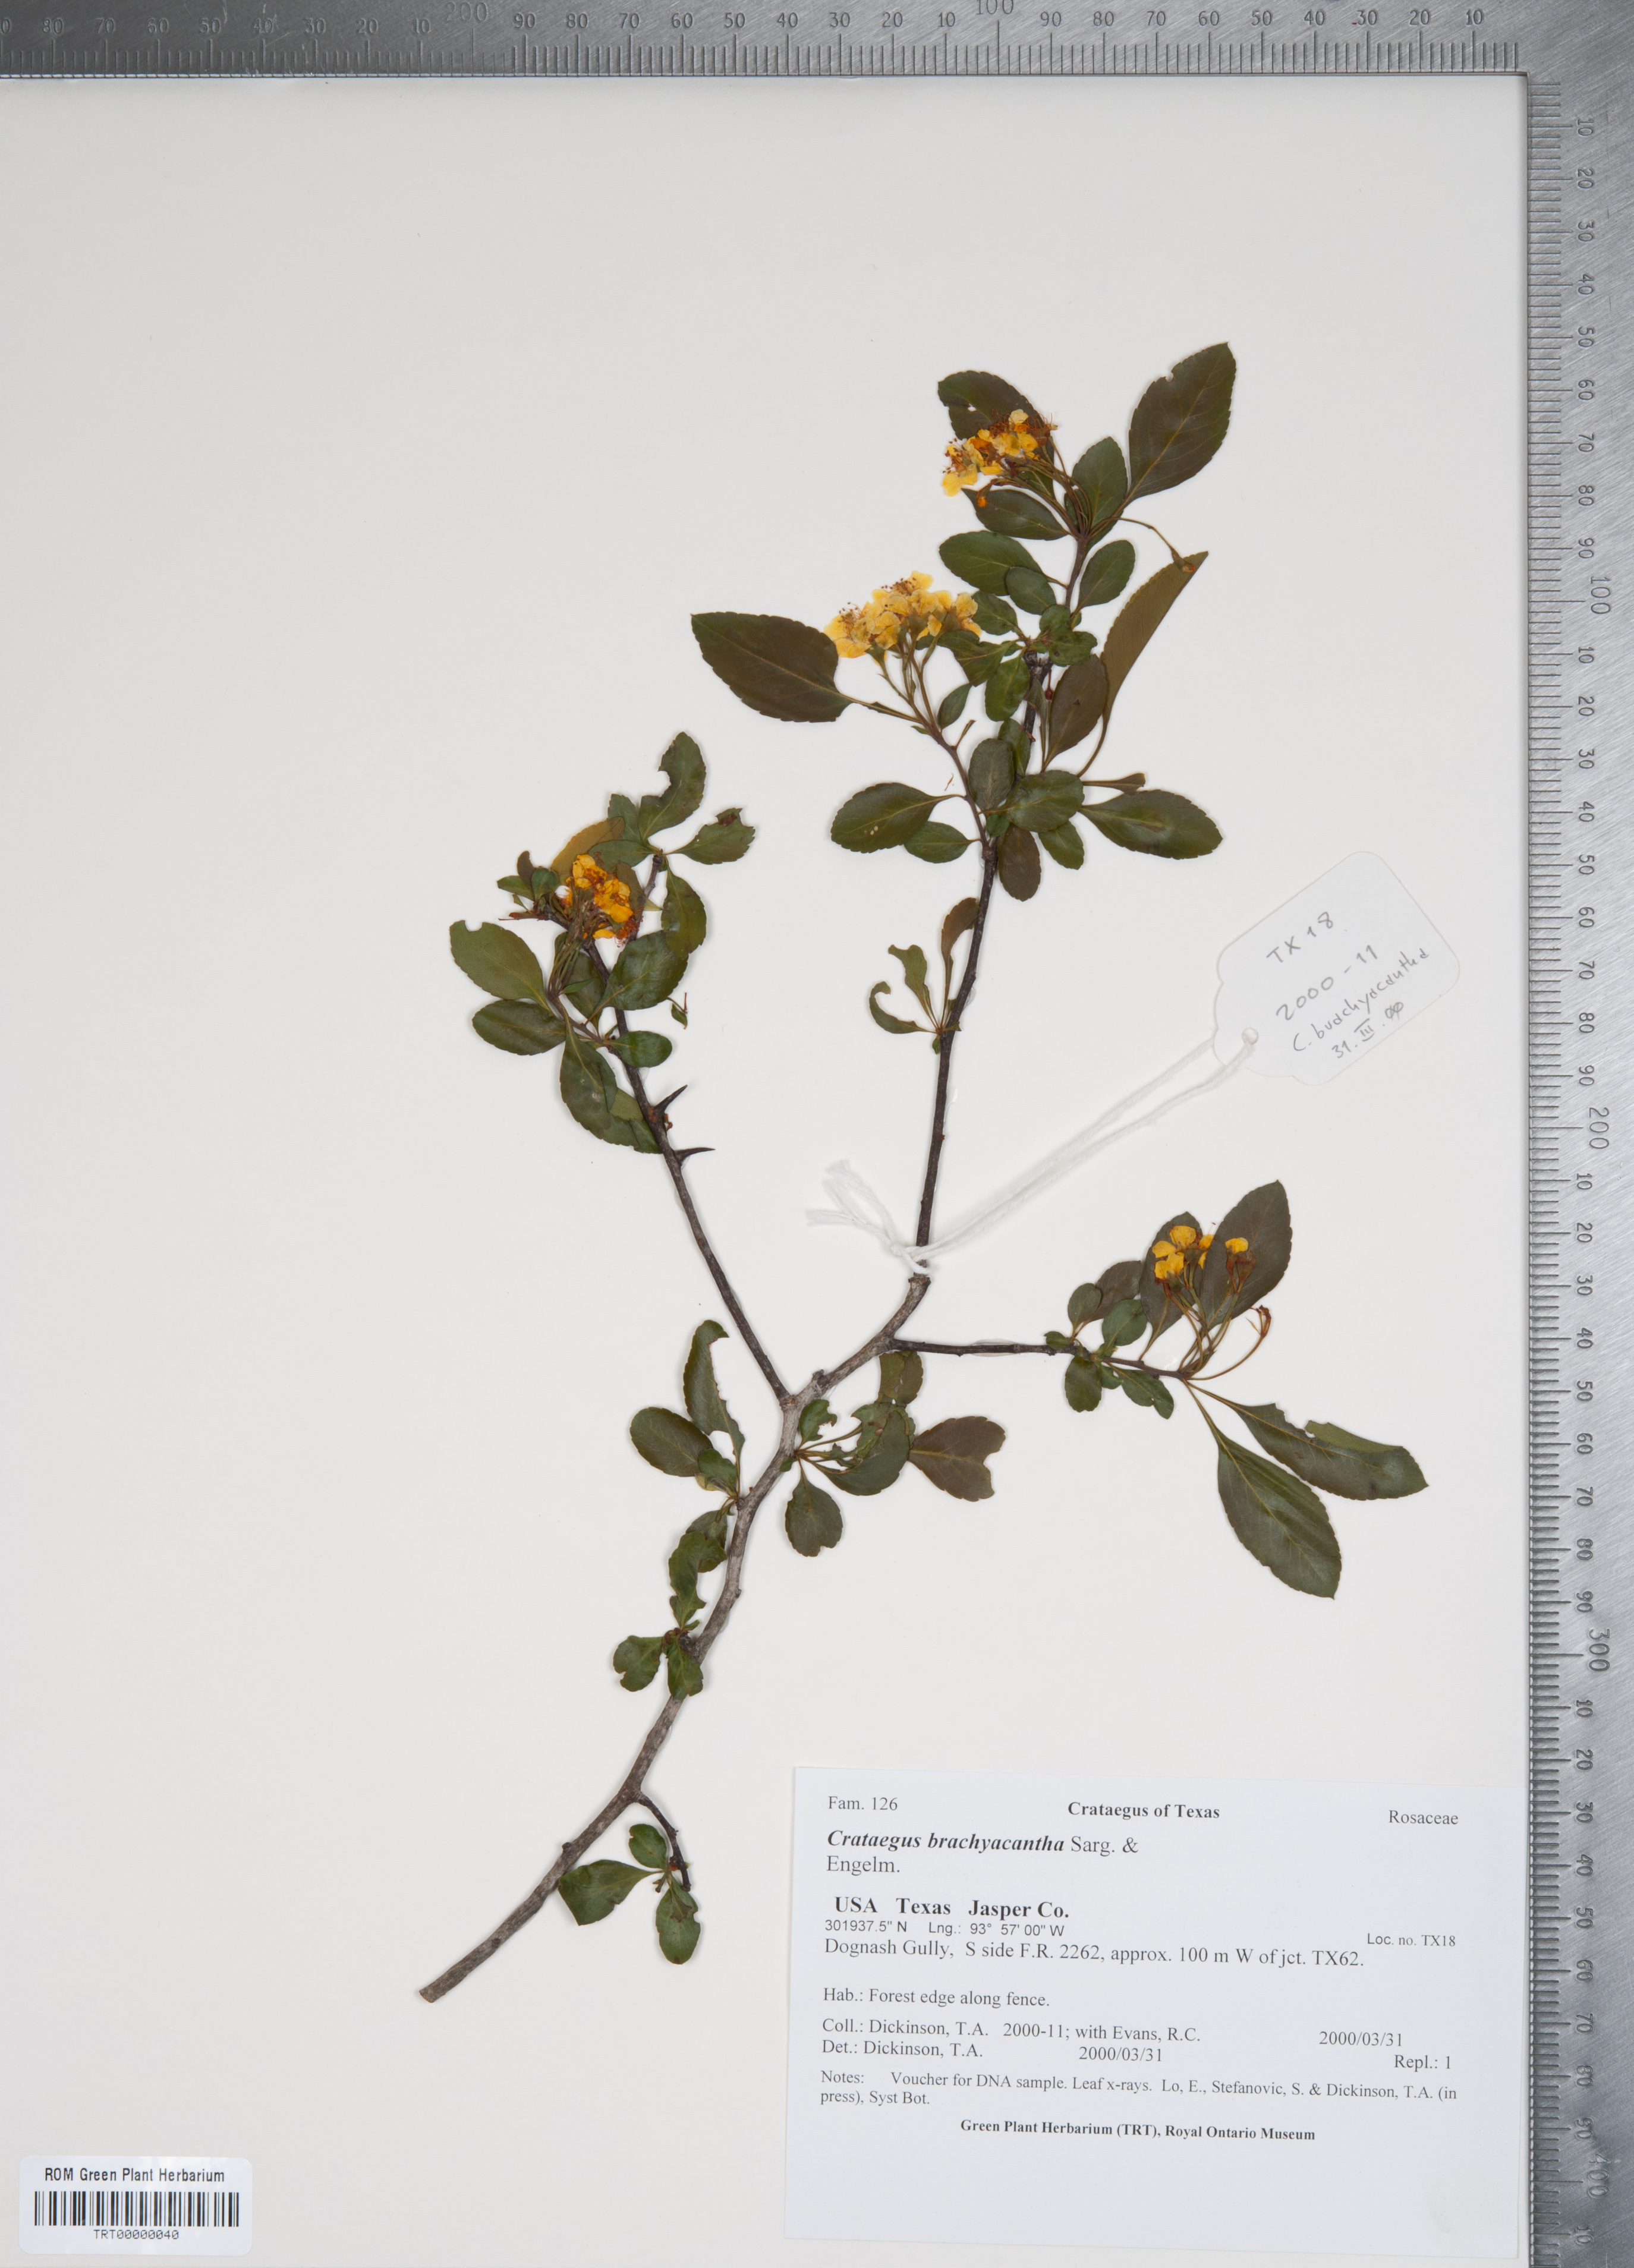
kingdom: Plantae
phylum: Tracheophyta
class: Magnoliopsida
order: Rosales
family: Rosaceae
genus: Crataegus
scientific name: Crataegus brachyacantha
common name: Blueberry-hawthorn
